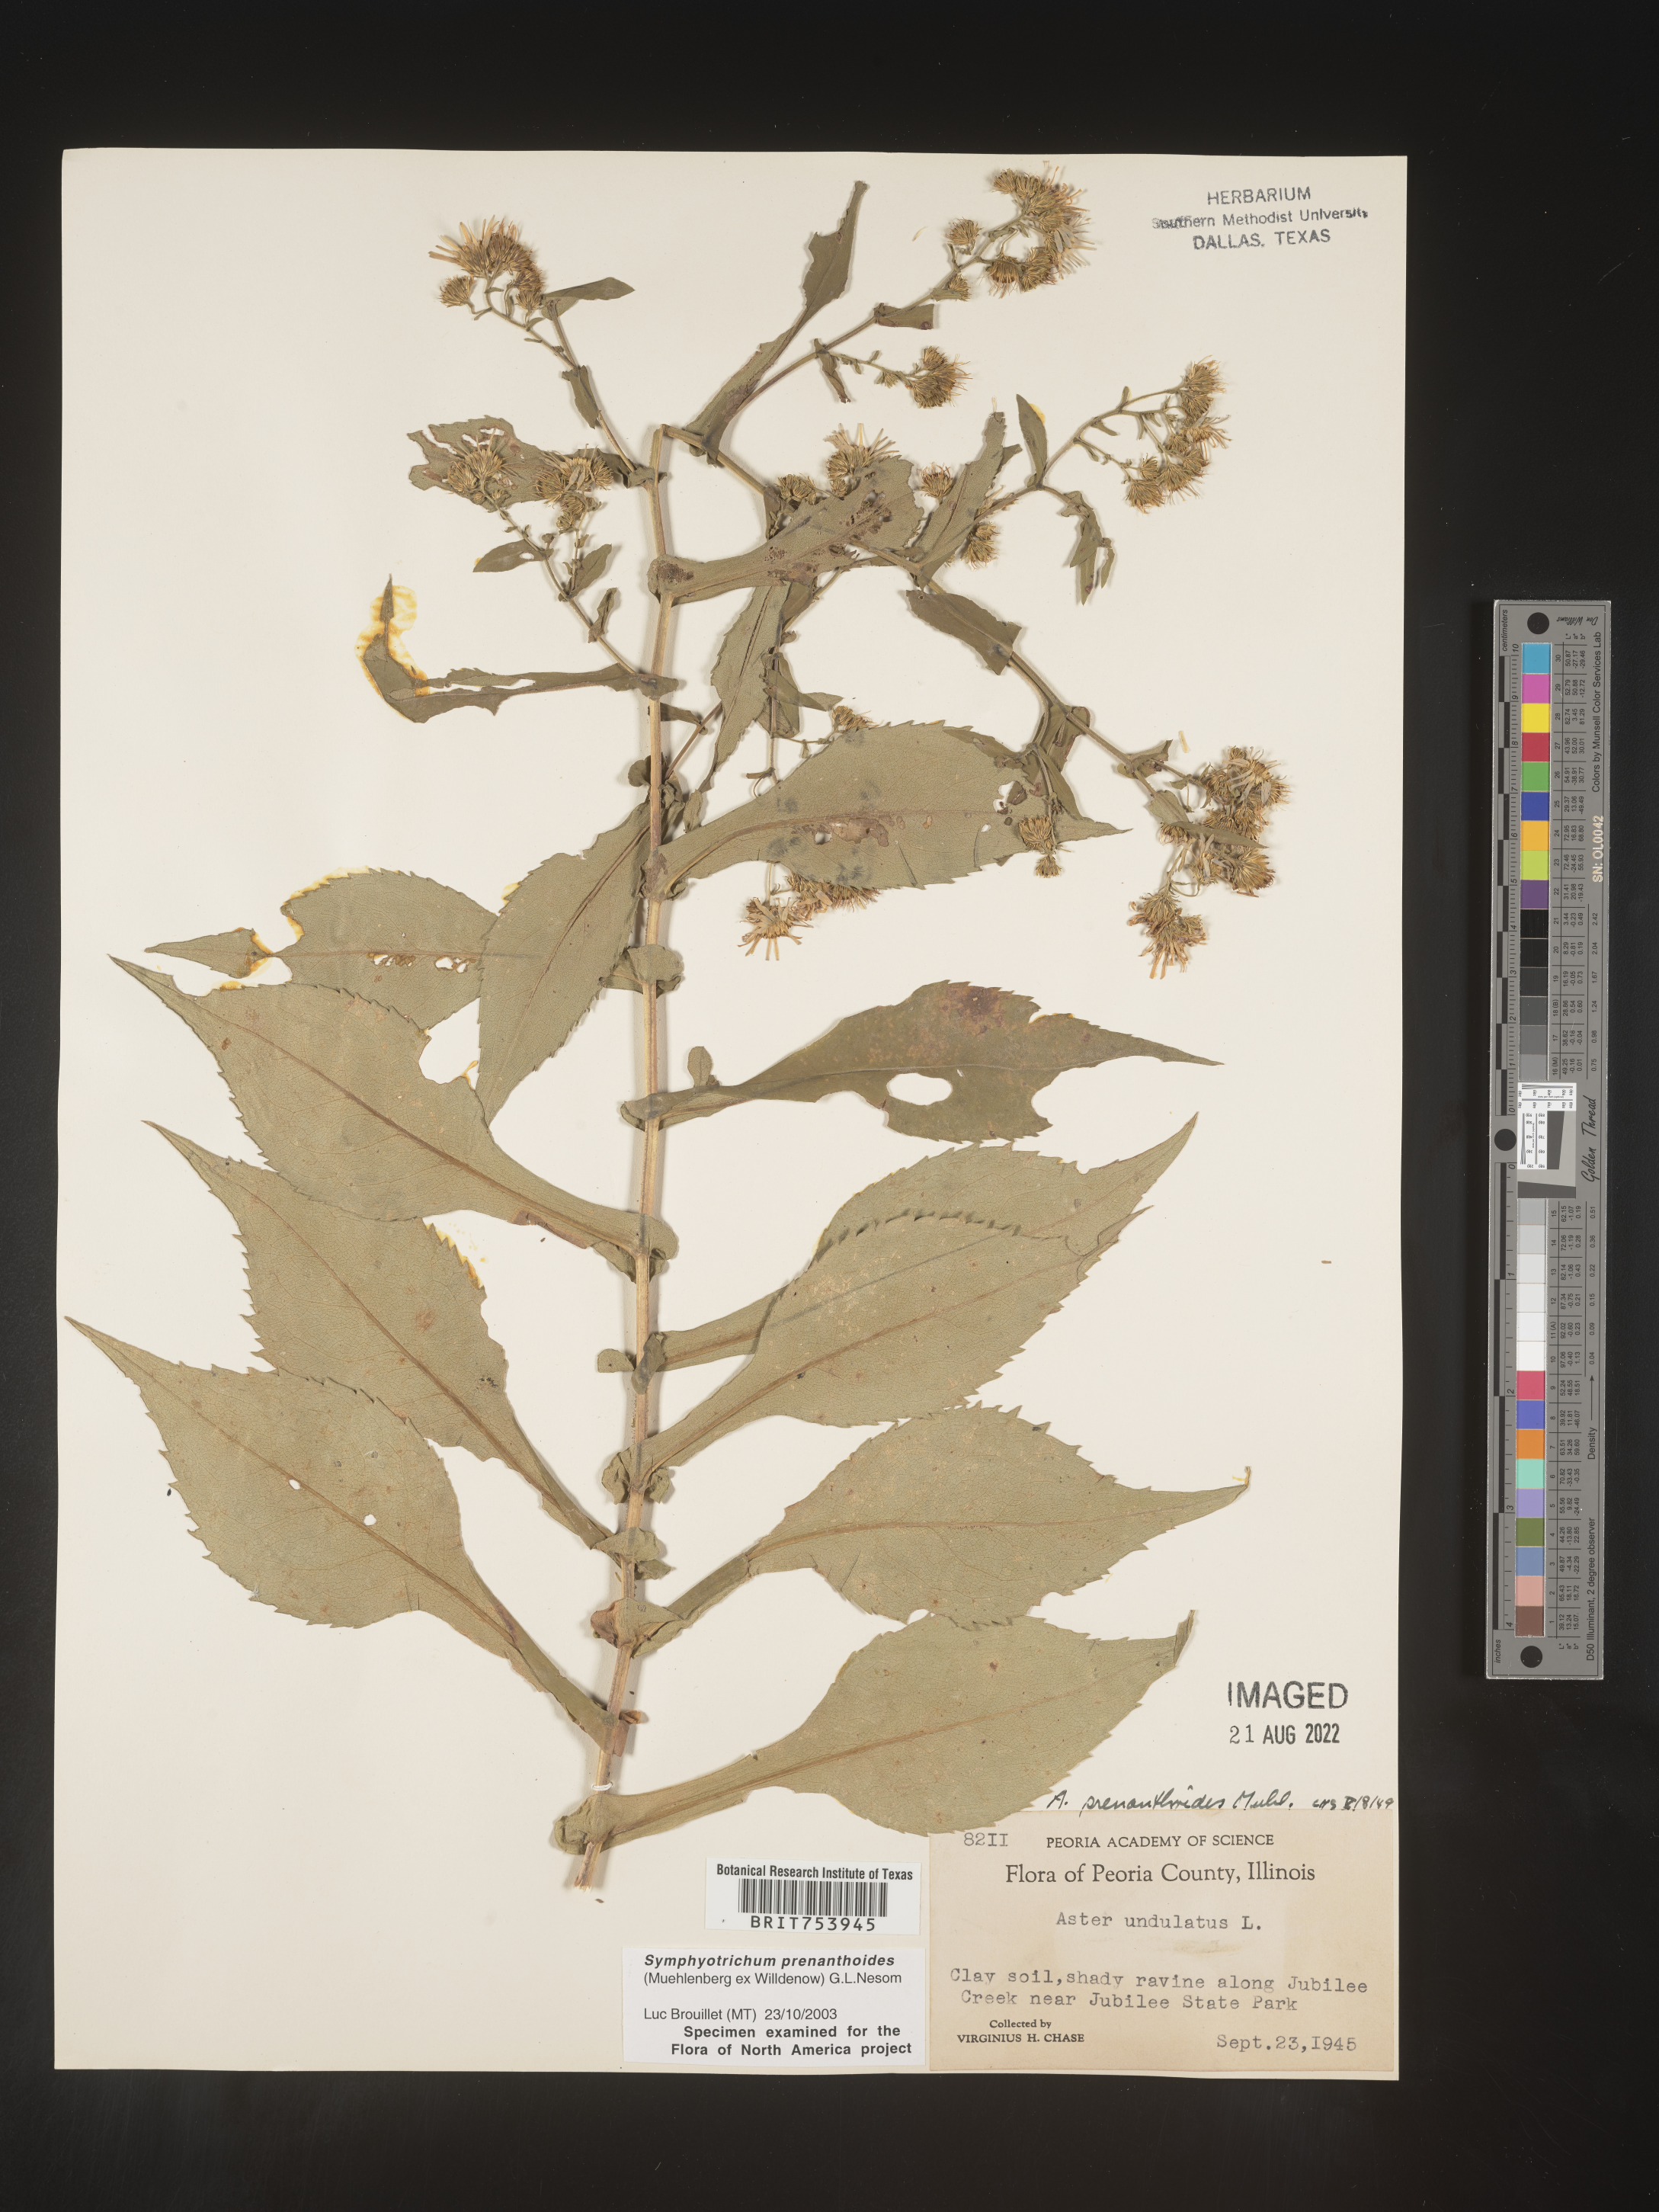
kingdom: Plantae
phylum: Tracheophyta
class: Magnoliopsida
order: Asterales
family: Asteraceae
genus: Symphyotrichum
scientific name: Symphyotrichum prenanthoides
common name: Crooked-stem aster
